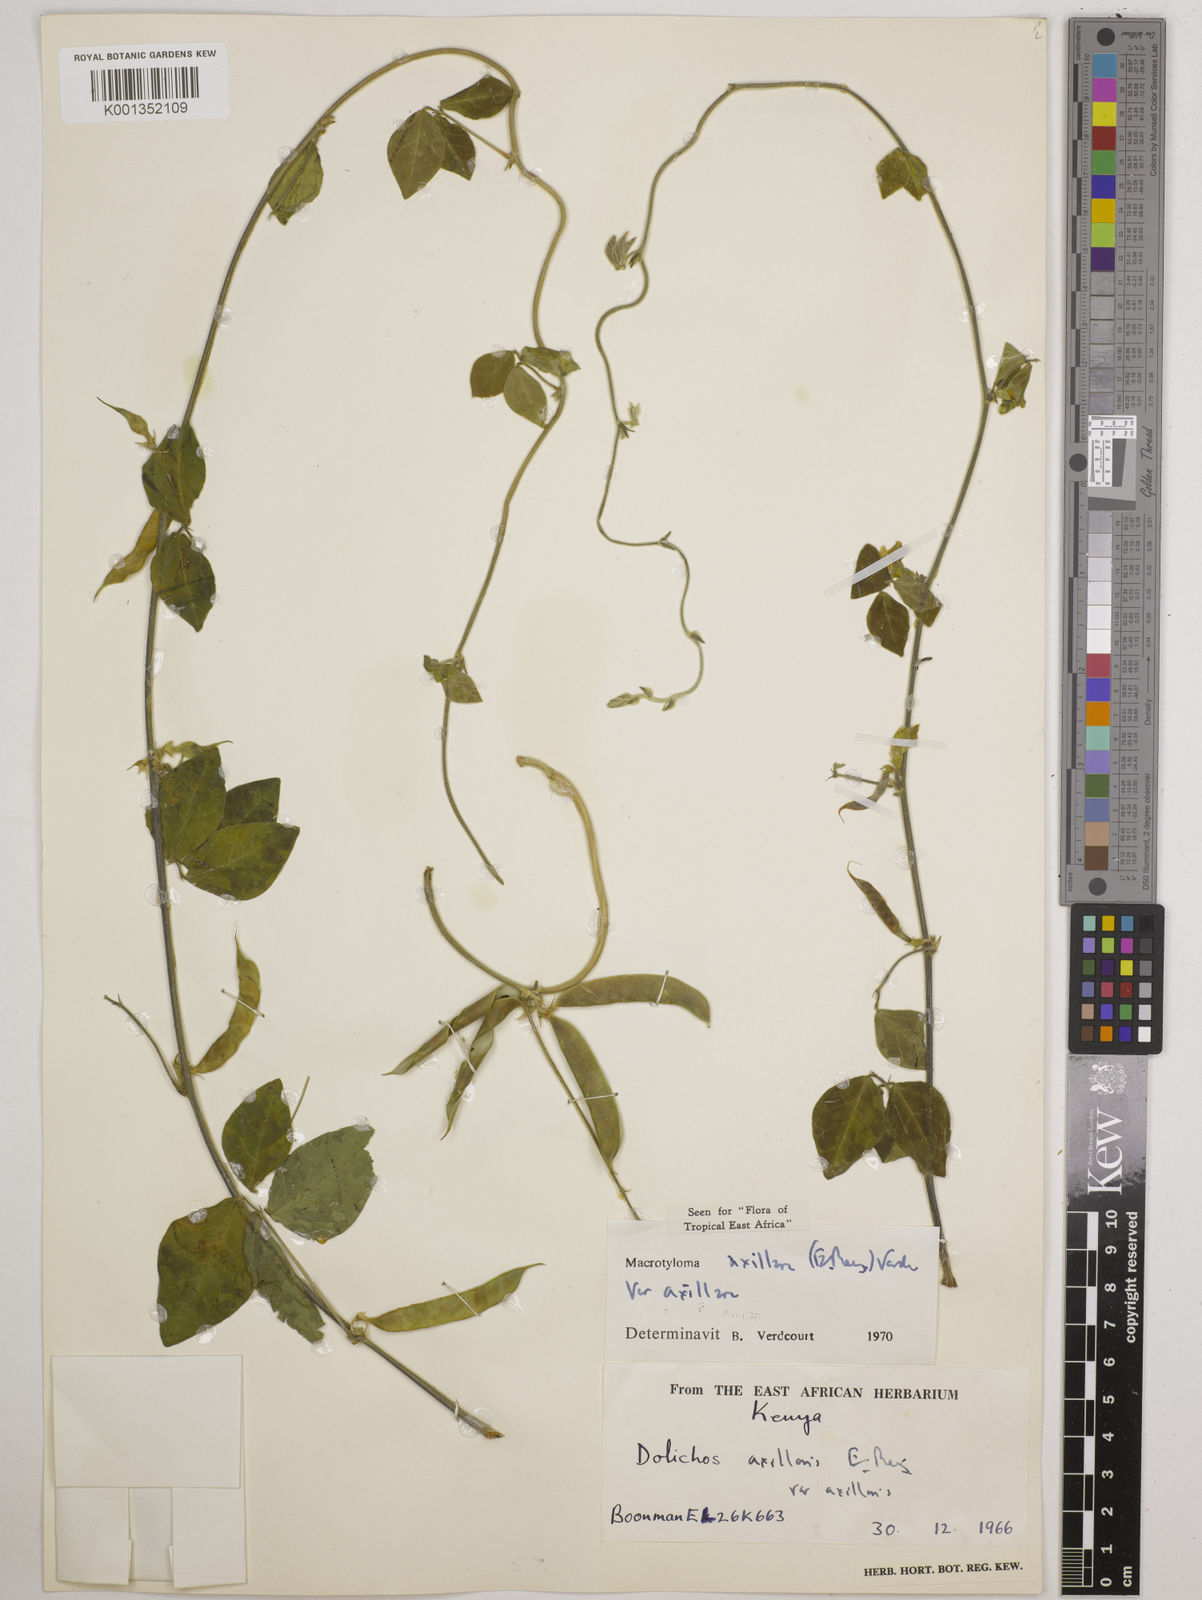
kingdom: Plantae
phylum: Tracheophyta
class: Magnoliopsida
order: Fabales
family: Fabaceae
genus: Macrotyloma
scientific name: Macrotyloma axillare
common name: Perennial horsegram
